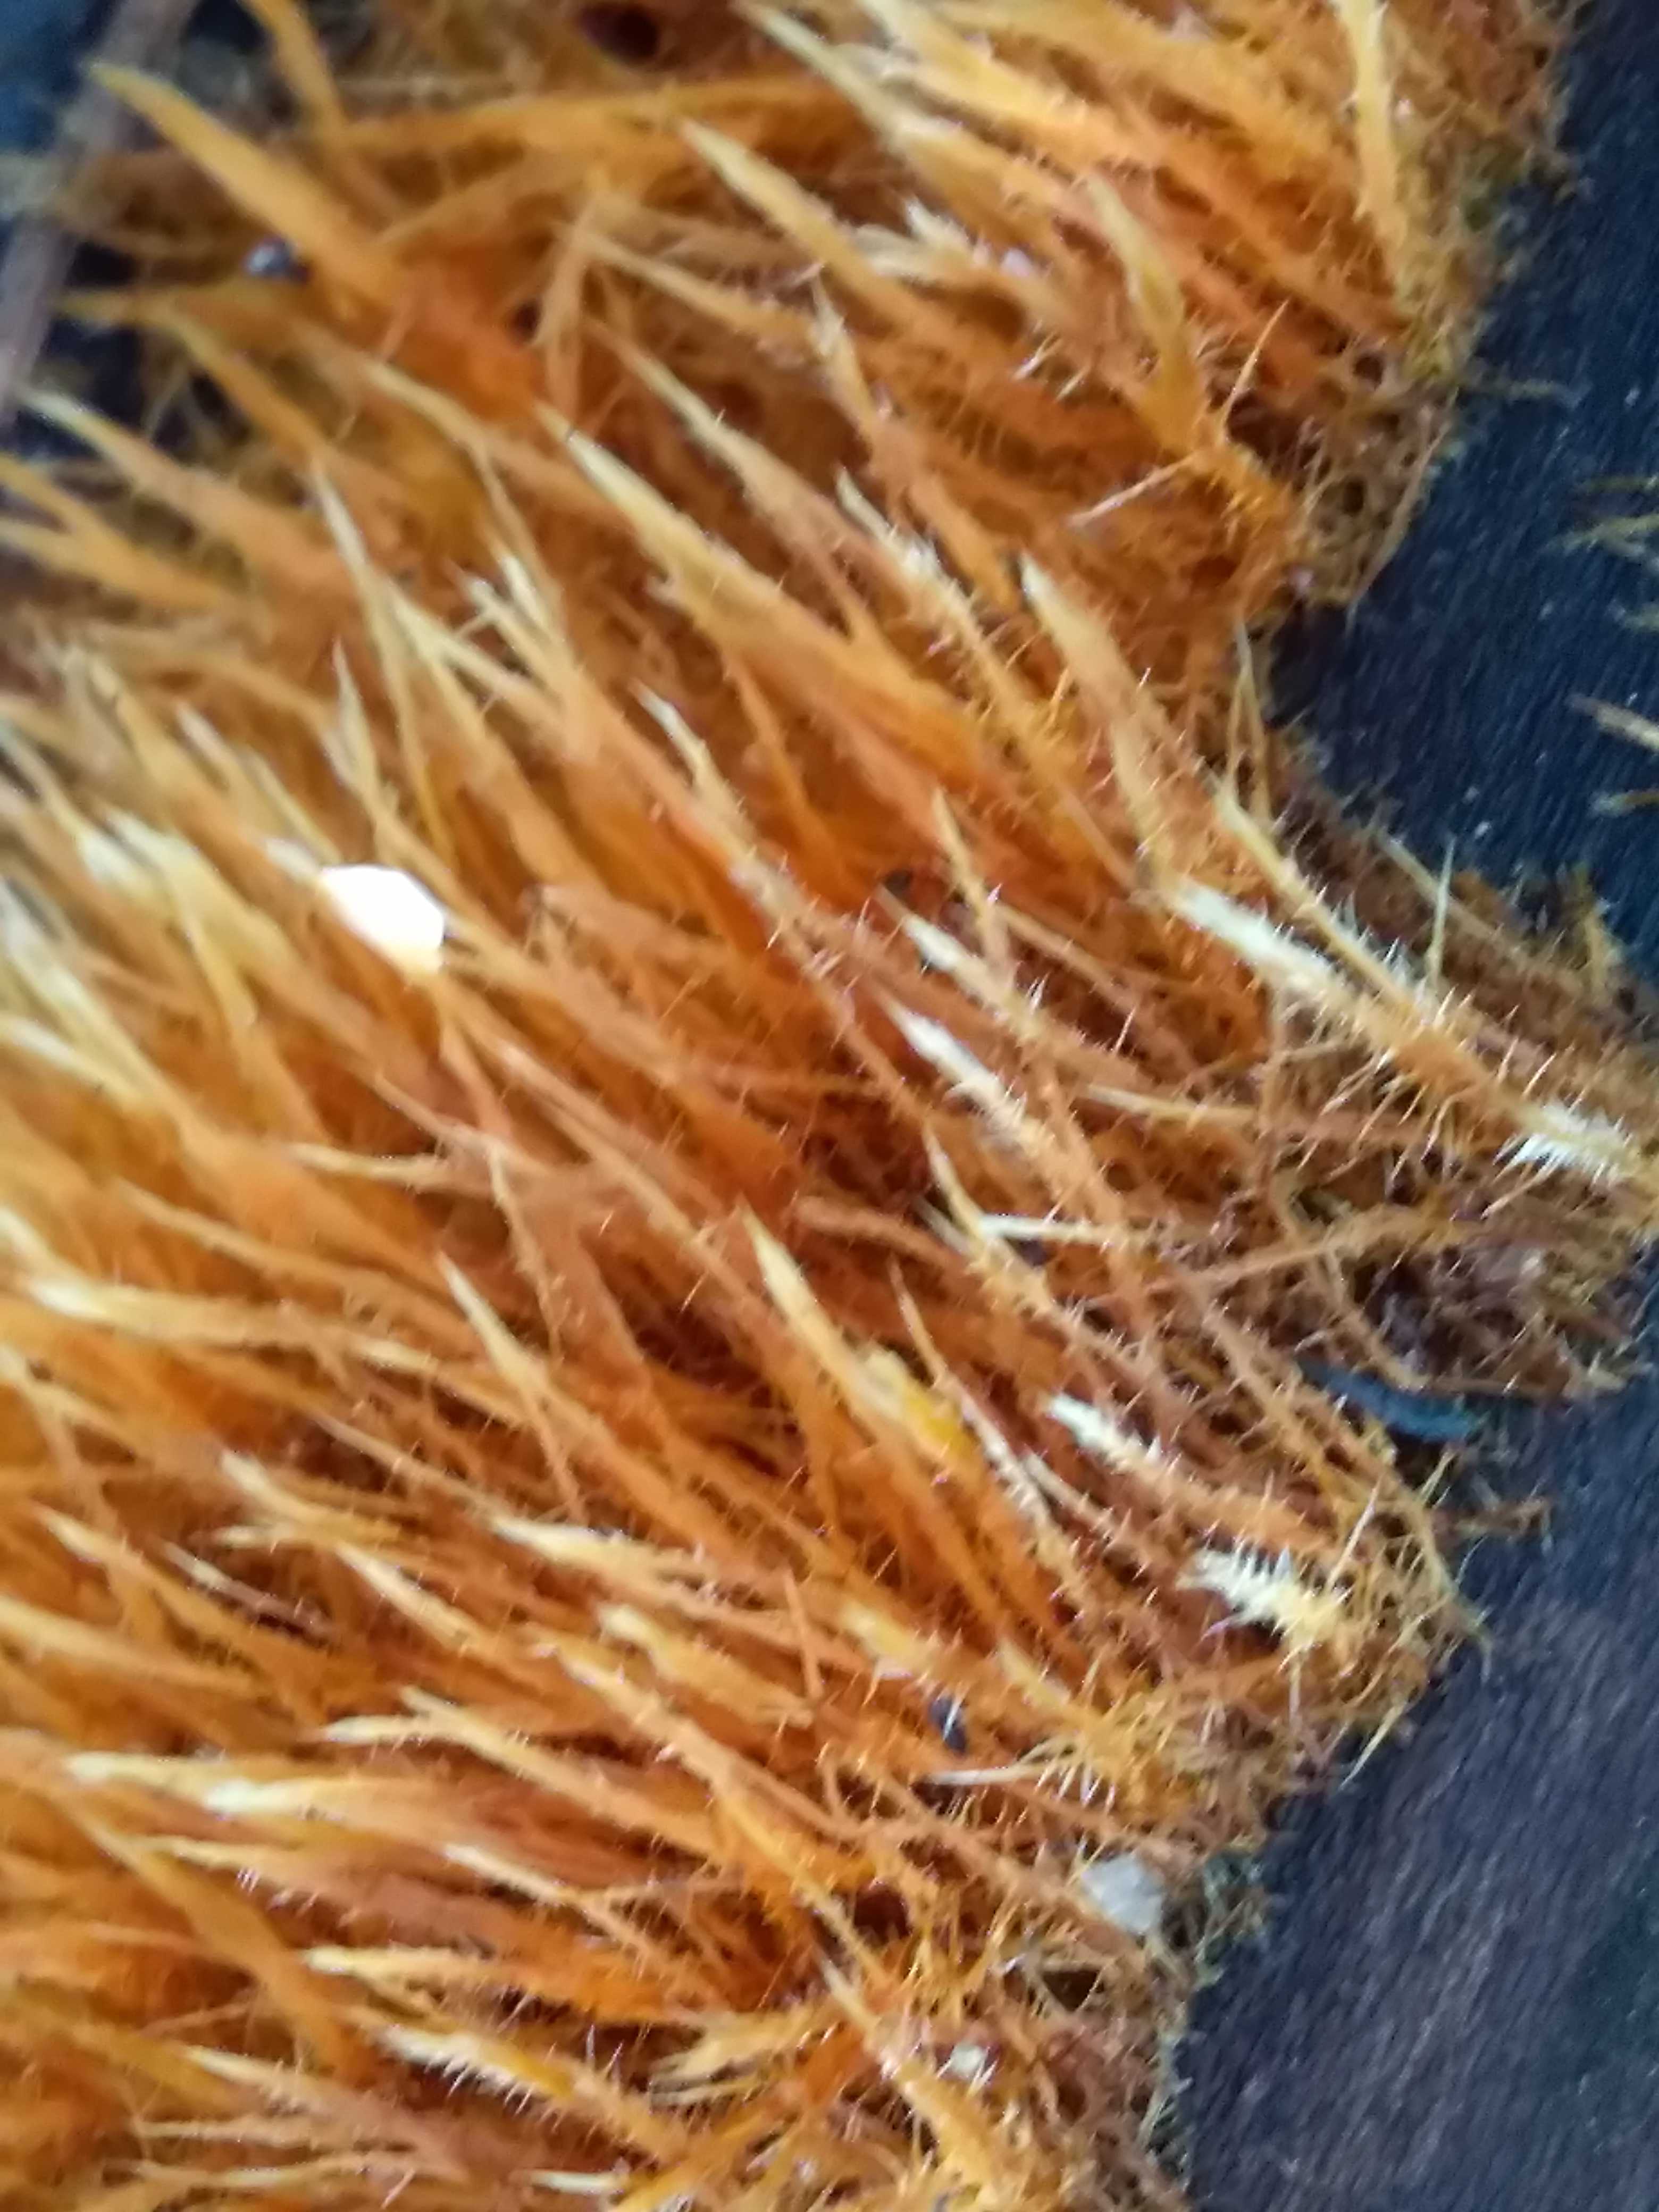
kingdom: Fungi
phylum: Basidiomycota
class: Agaricomycetes
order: Agaricales
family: Psathyrellaceae
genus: Ozonium
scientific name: Ozonium
